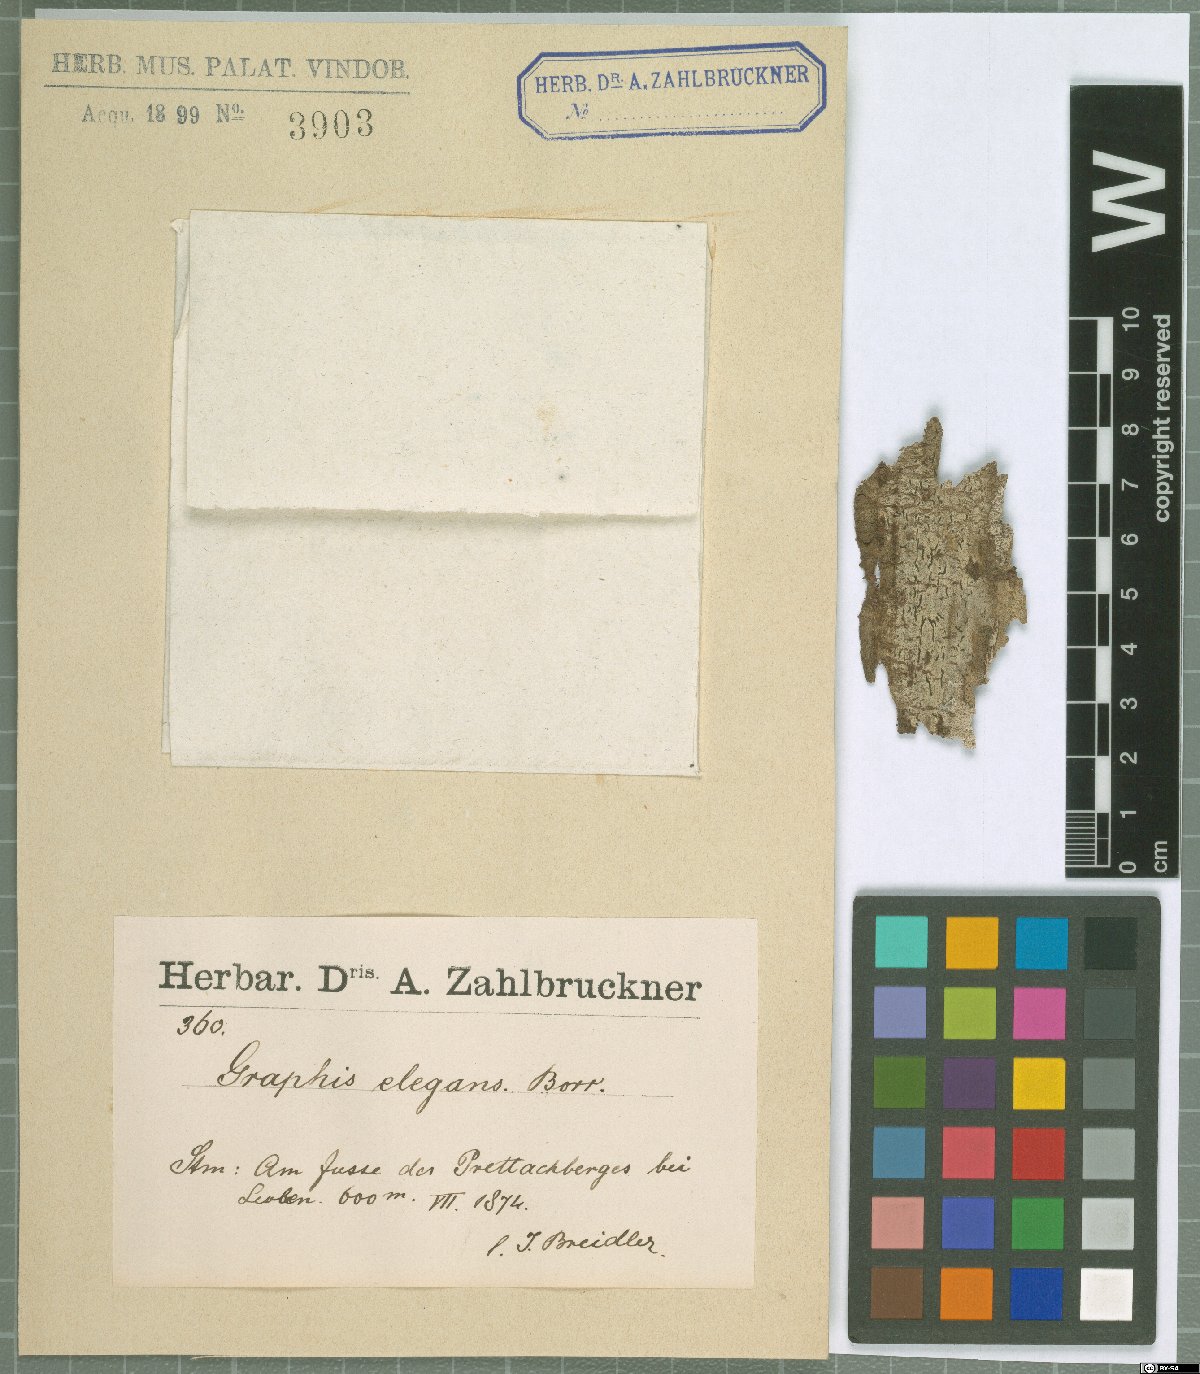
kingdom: Fungi
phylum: Ascomycota
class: Lecanoromycetes
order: Ostropales
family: Graphidaceae
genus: Graphis
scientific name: Graphis elegans
